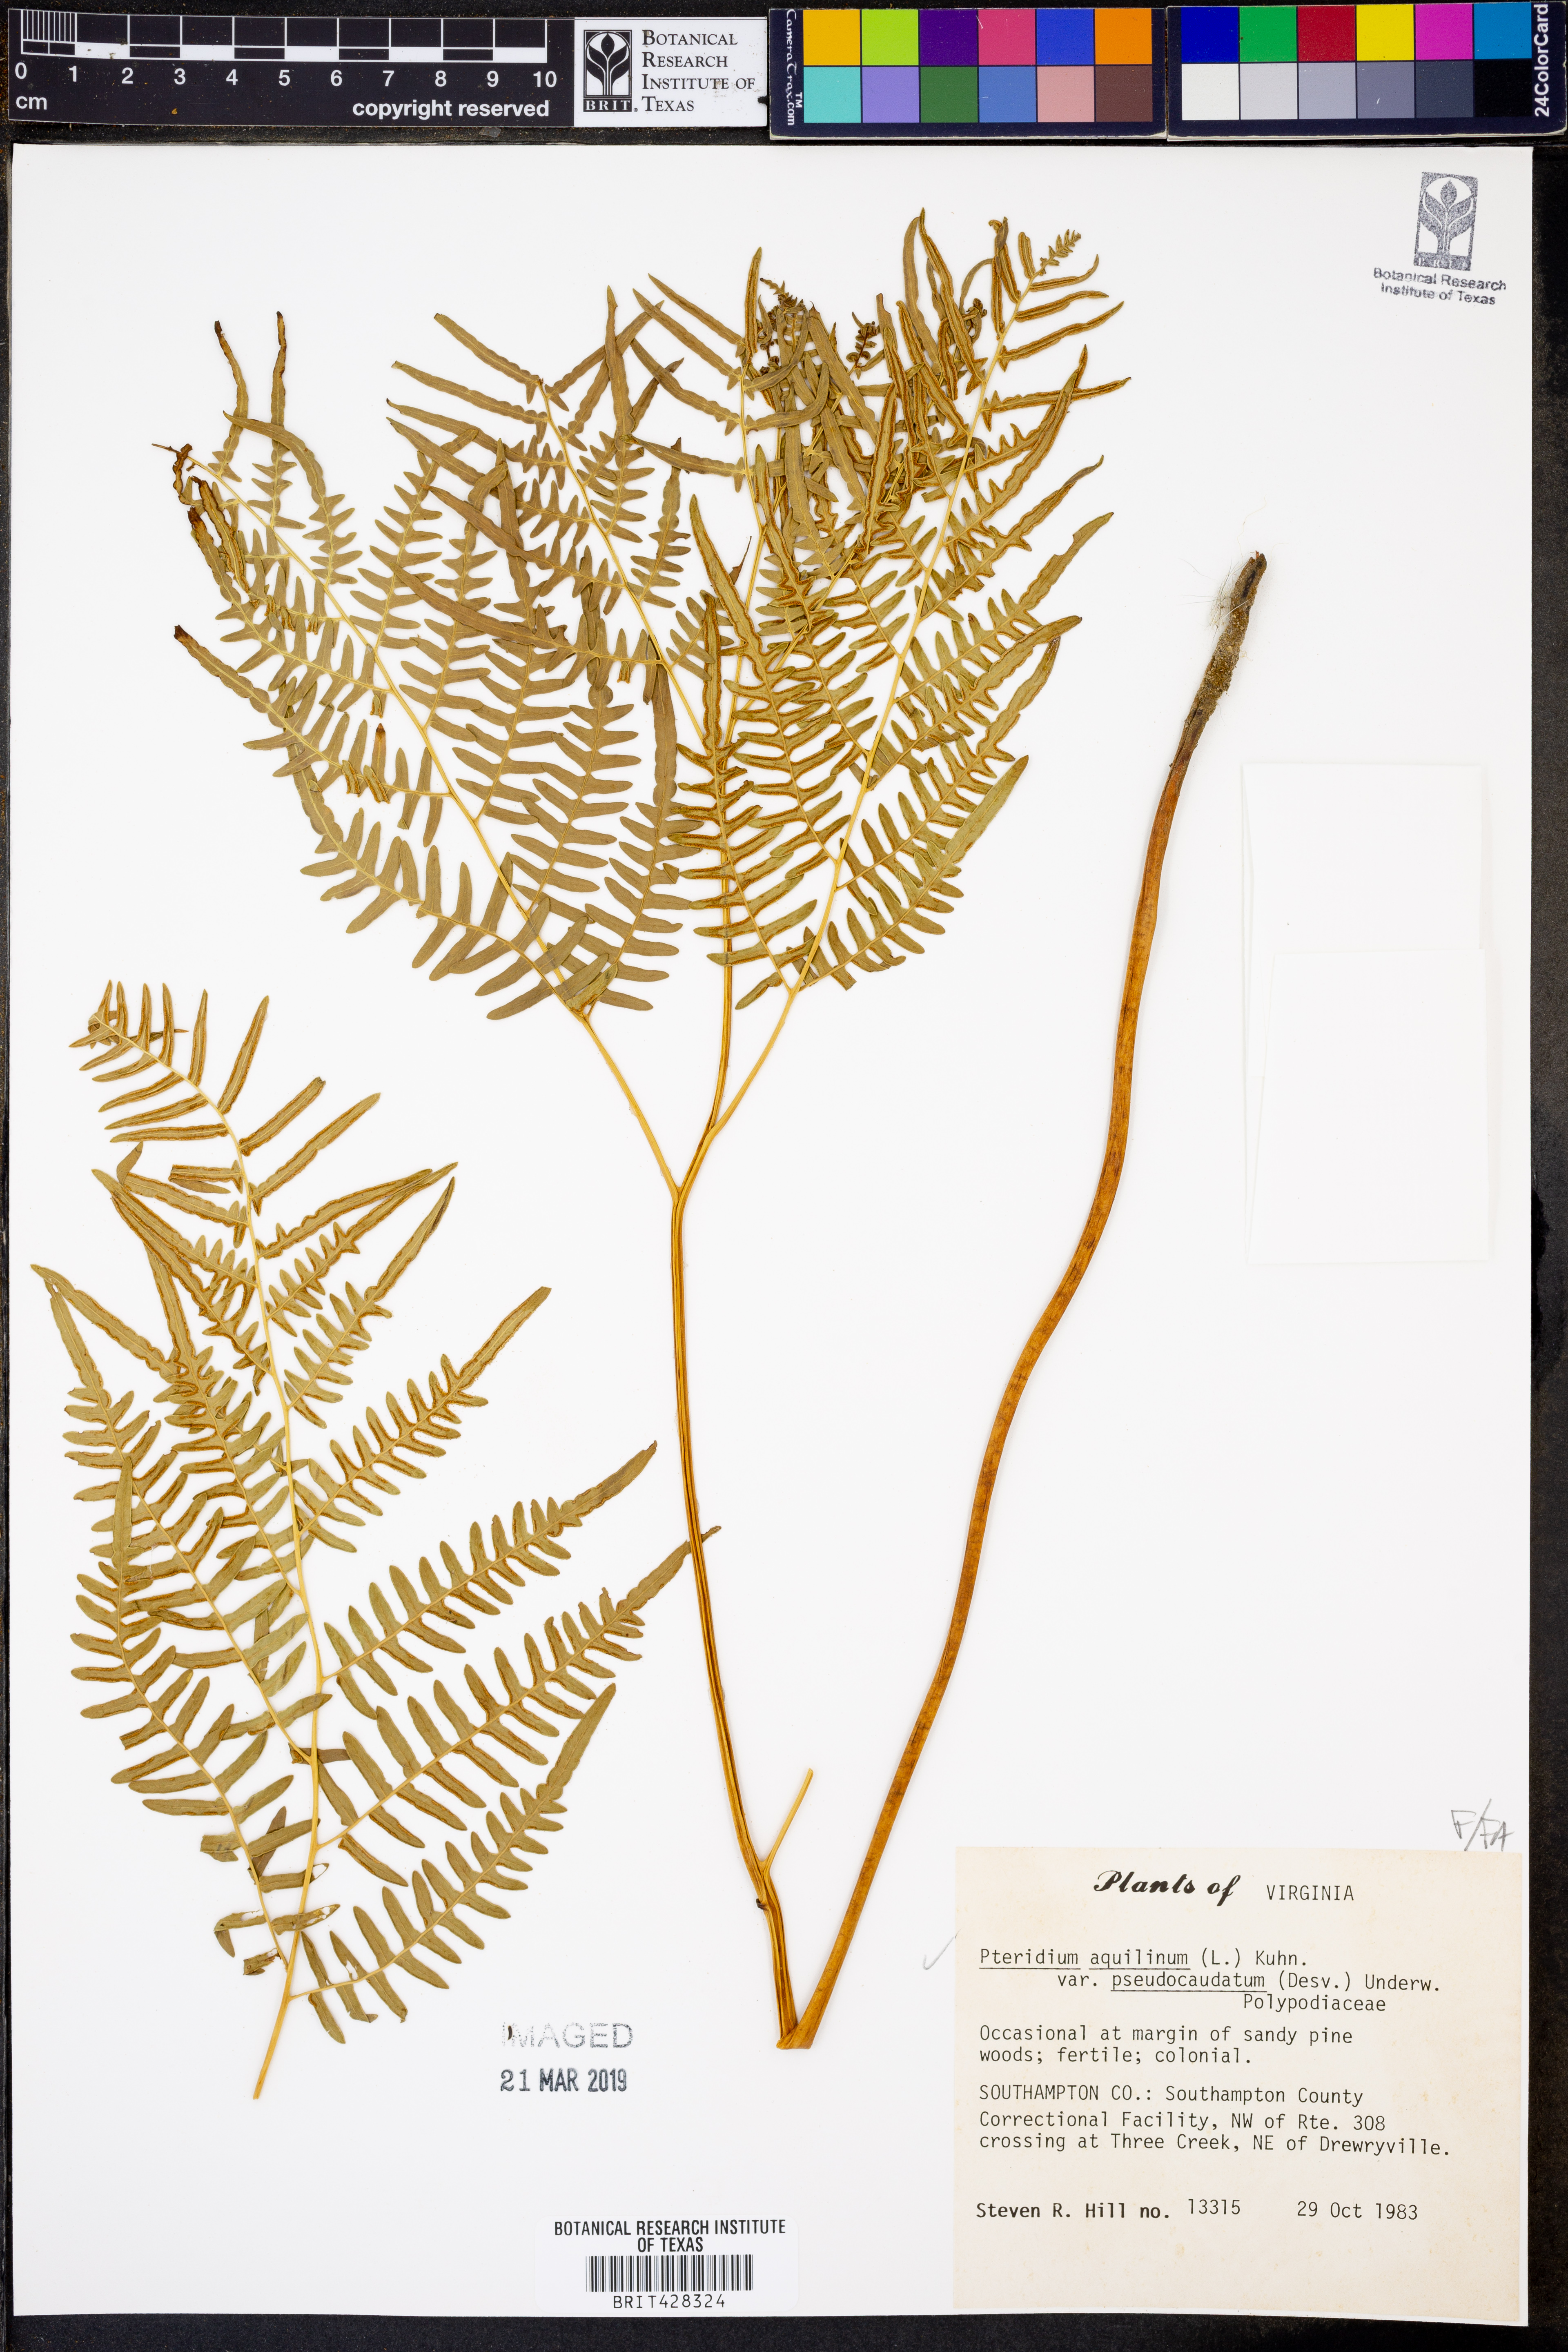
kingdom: Plantae
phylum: Tracheophyta
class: Polypodiopsida
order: Polypodiales
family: Dennstaedtiaceae
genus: Pteridium
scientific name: Pteridium aquilinum
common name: Bracken
